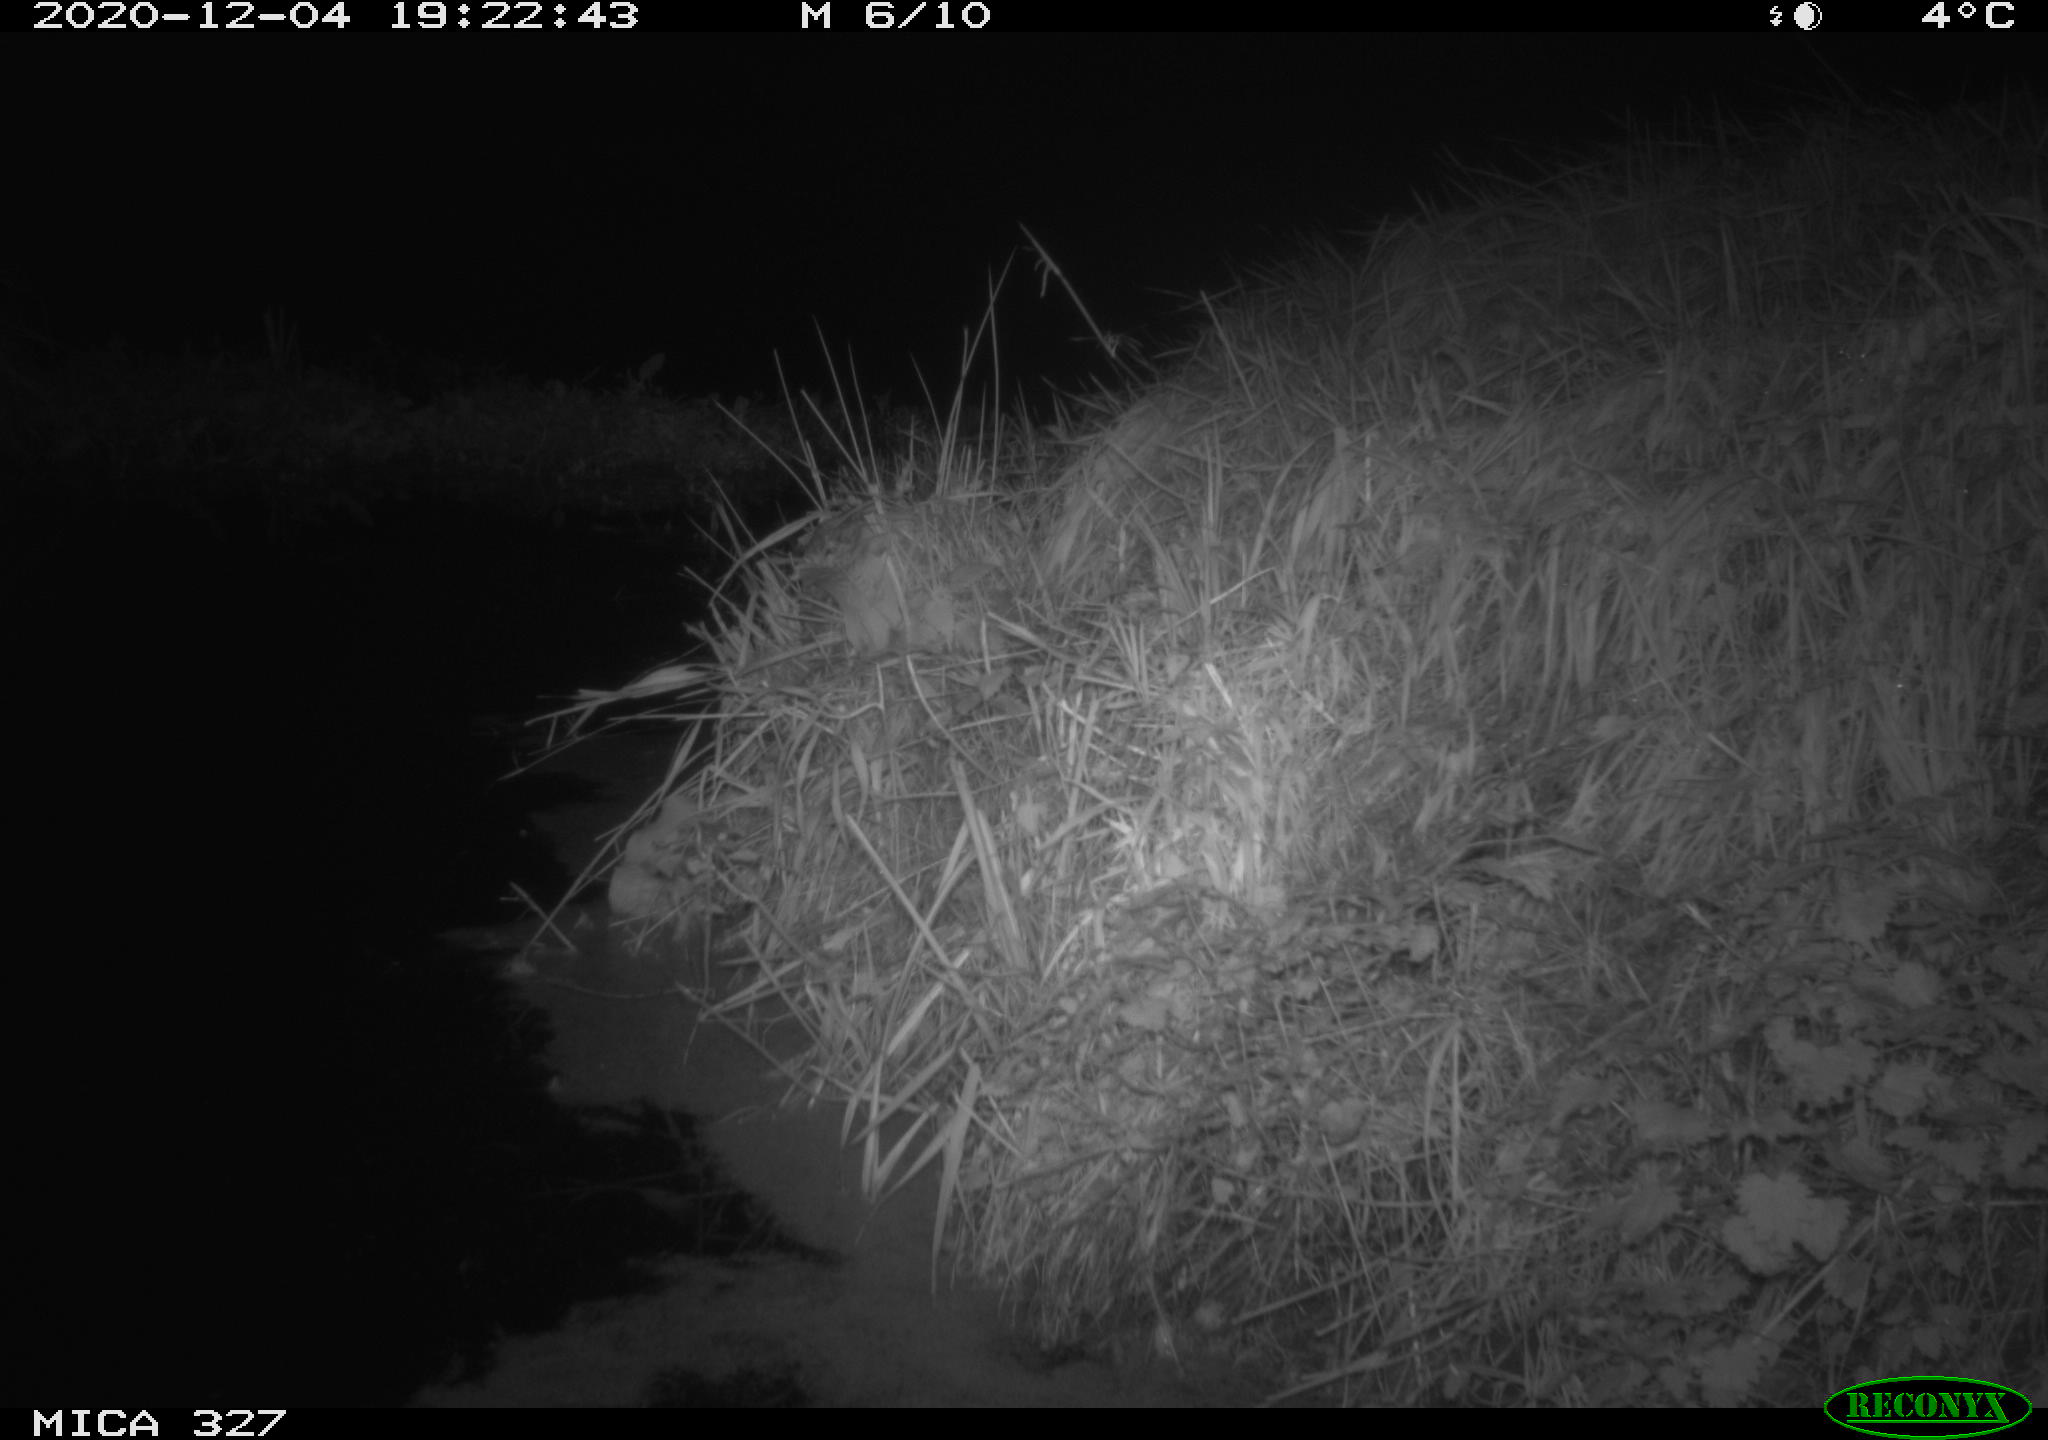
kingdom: Animalia
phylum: Chordata
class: Aves
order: Anseriformes
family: Anatidae
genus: Anas
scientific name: Anas platyrhynchos
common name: Mallard
